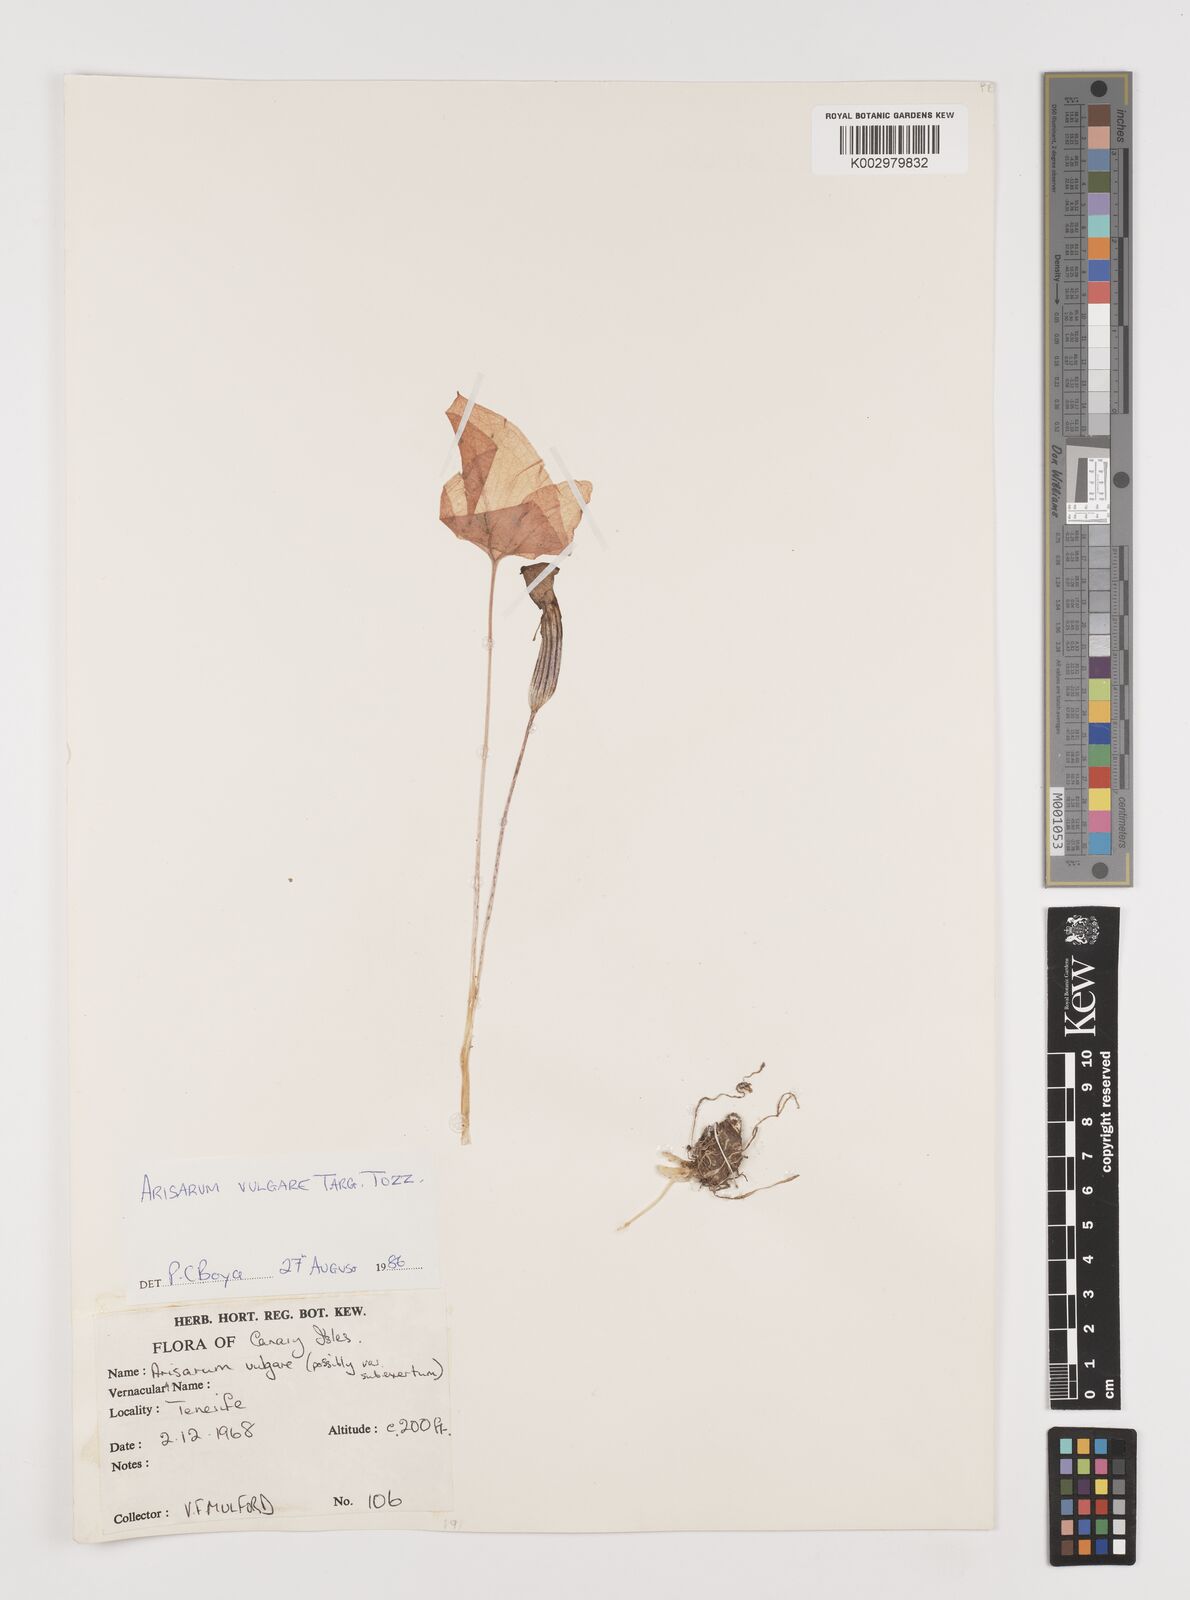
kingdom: Plantae
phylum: Tracheophyta
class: Liliopsida
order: Alismatales
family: Araceae
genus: Arisarum
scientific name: Arisarum vulgare
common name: Common arisarum
